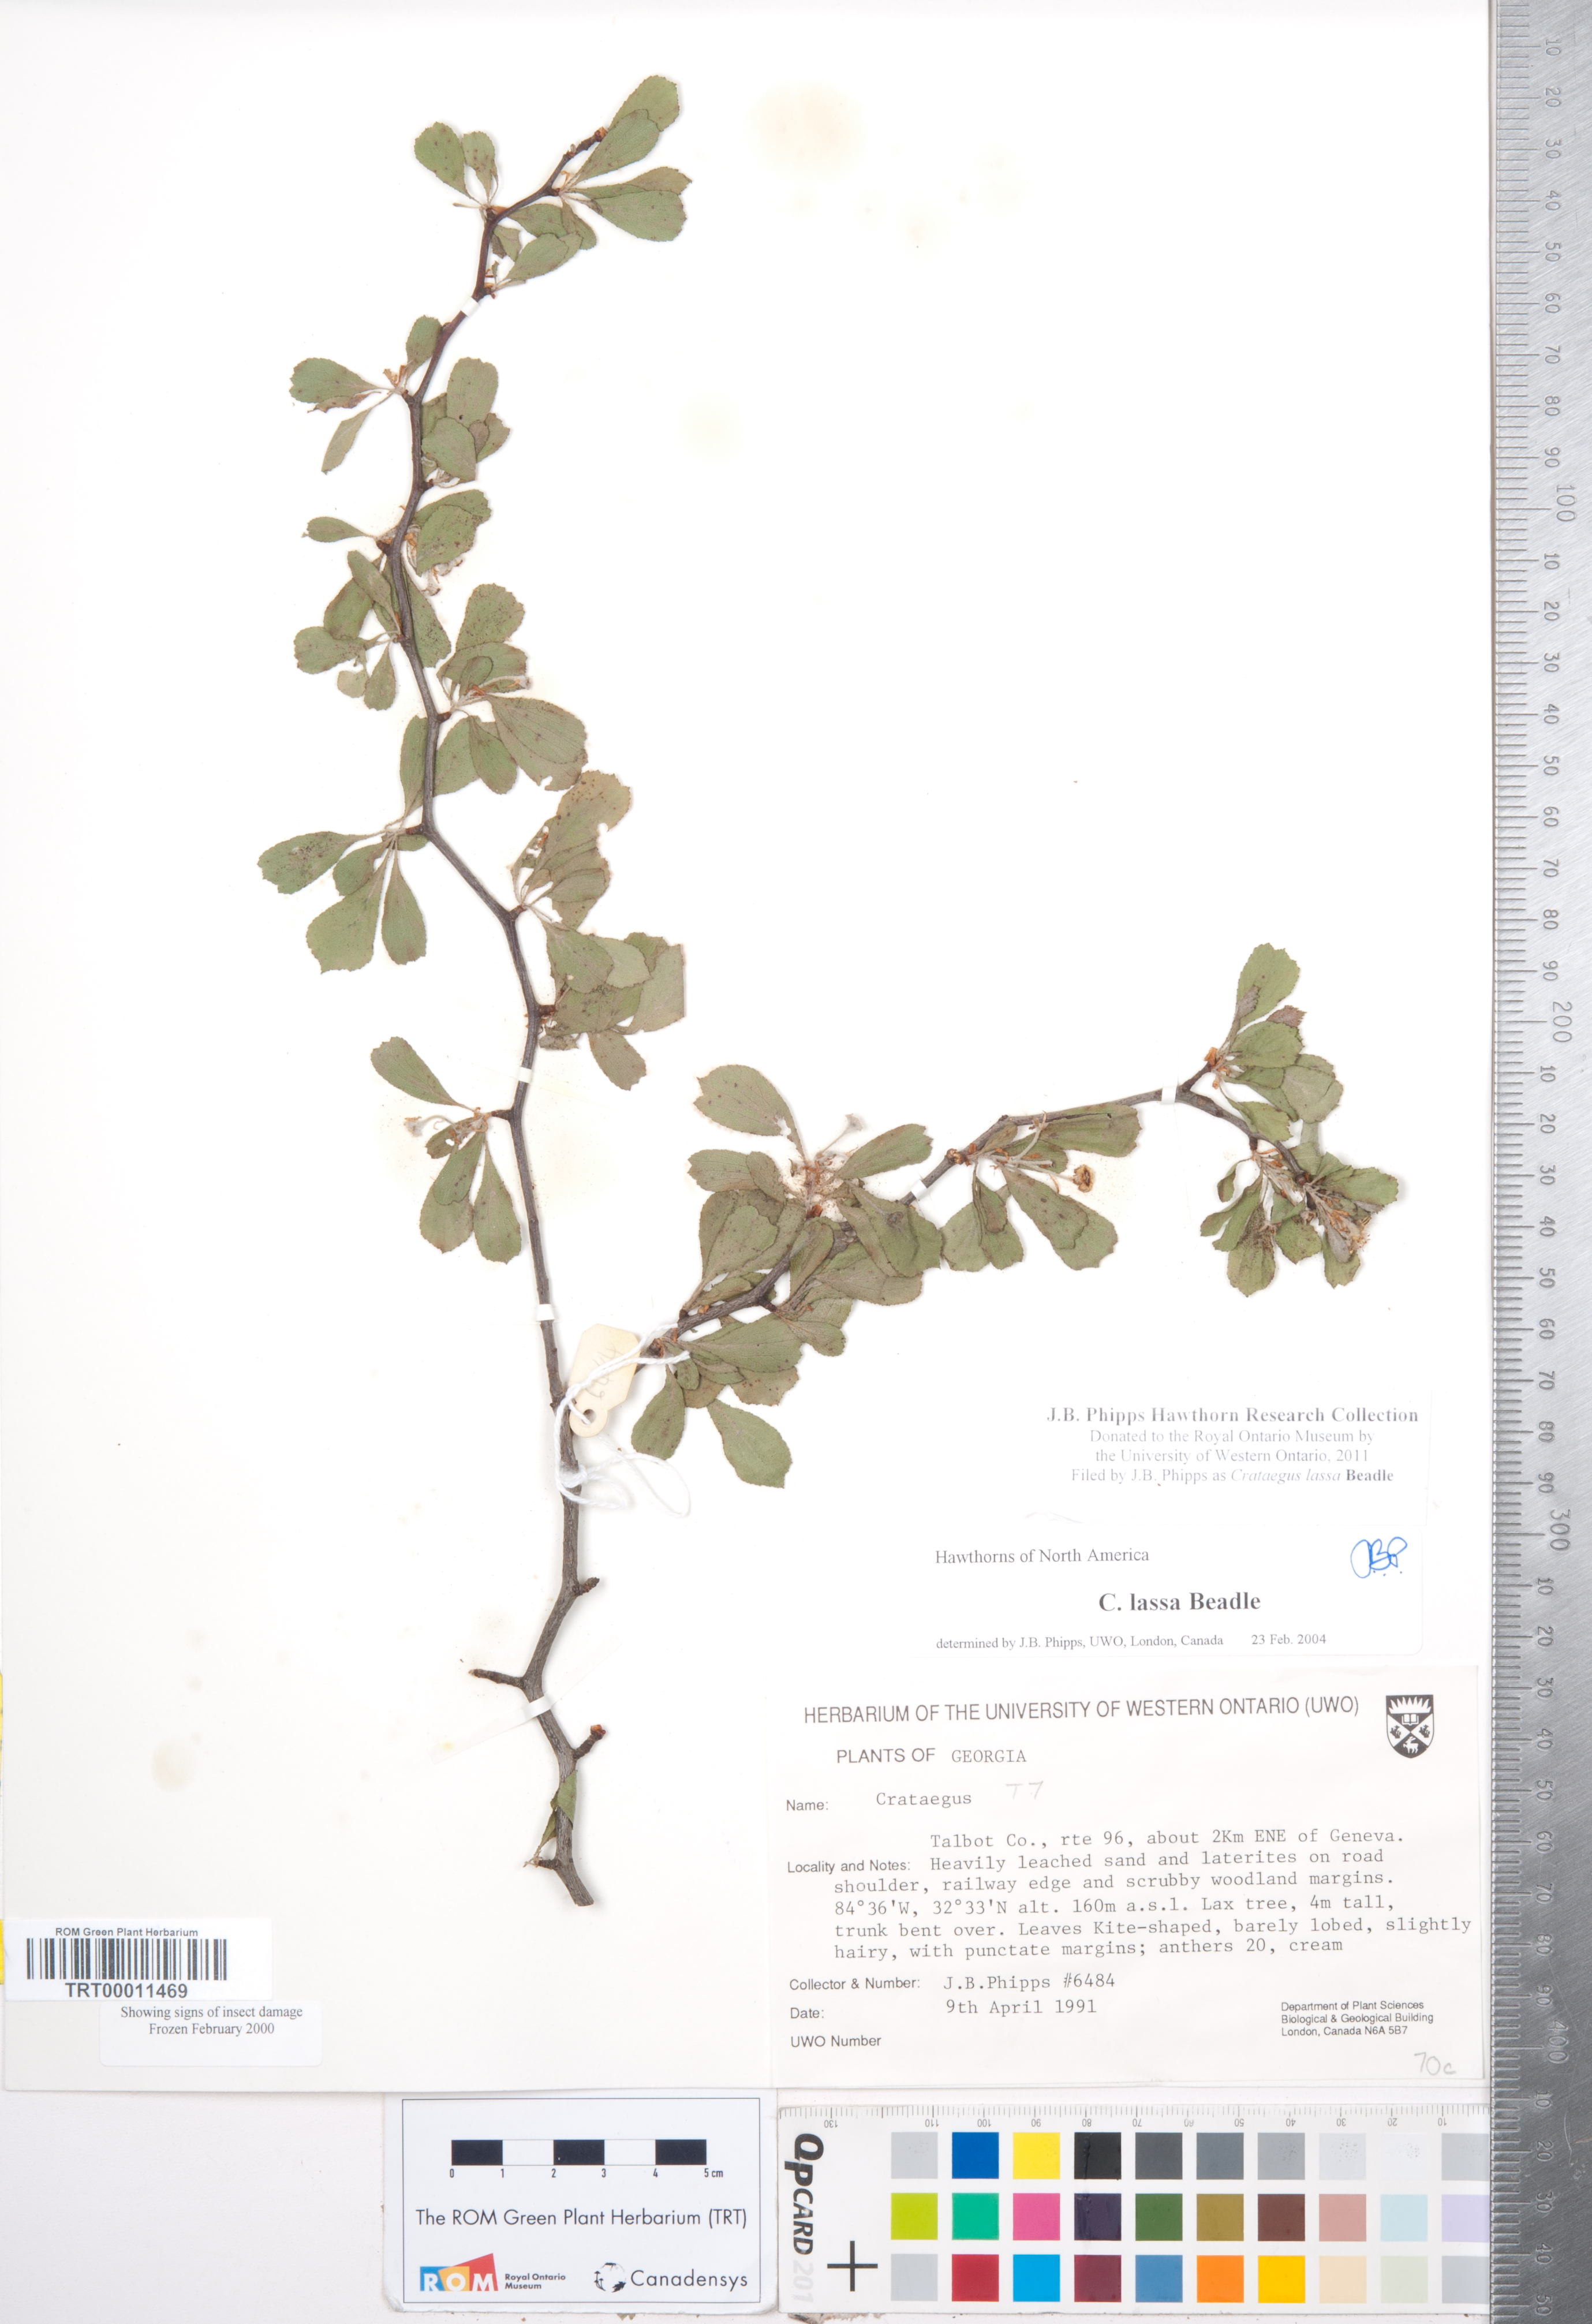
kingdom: Plantae
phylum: Tracheophyta
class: Magnoliopsida
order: Rosales
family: Rosaceae
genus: Crataegus
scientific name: Crataegus lassa
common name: Florida hawthorn
